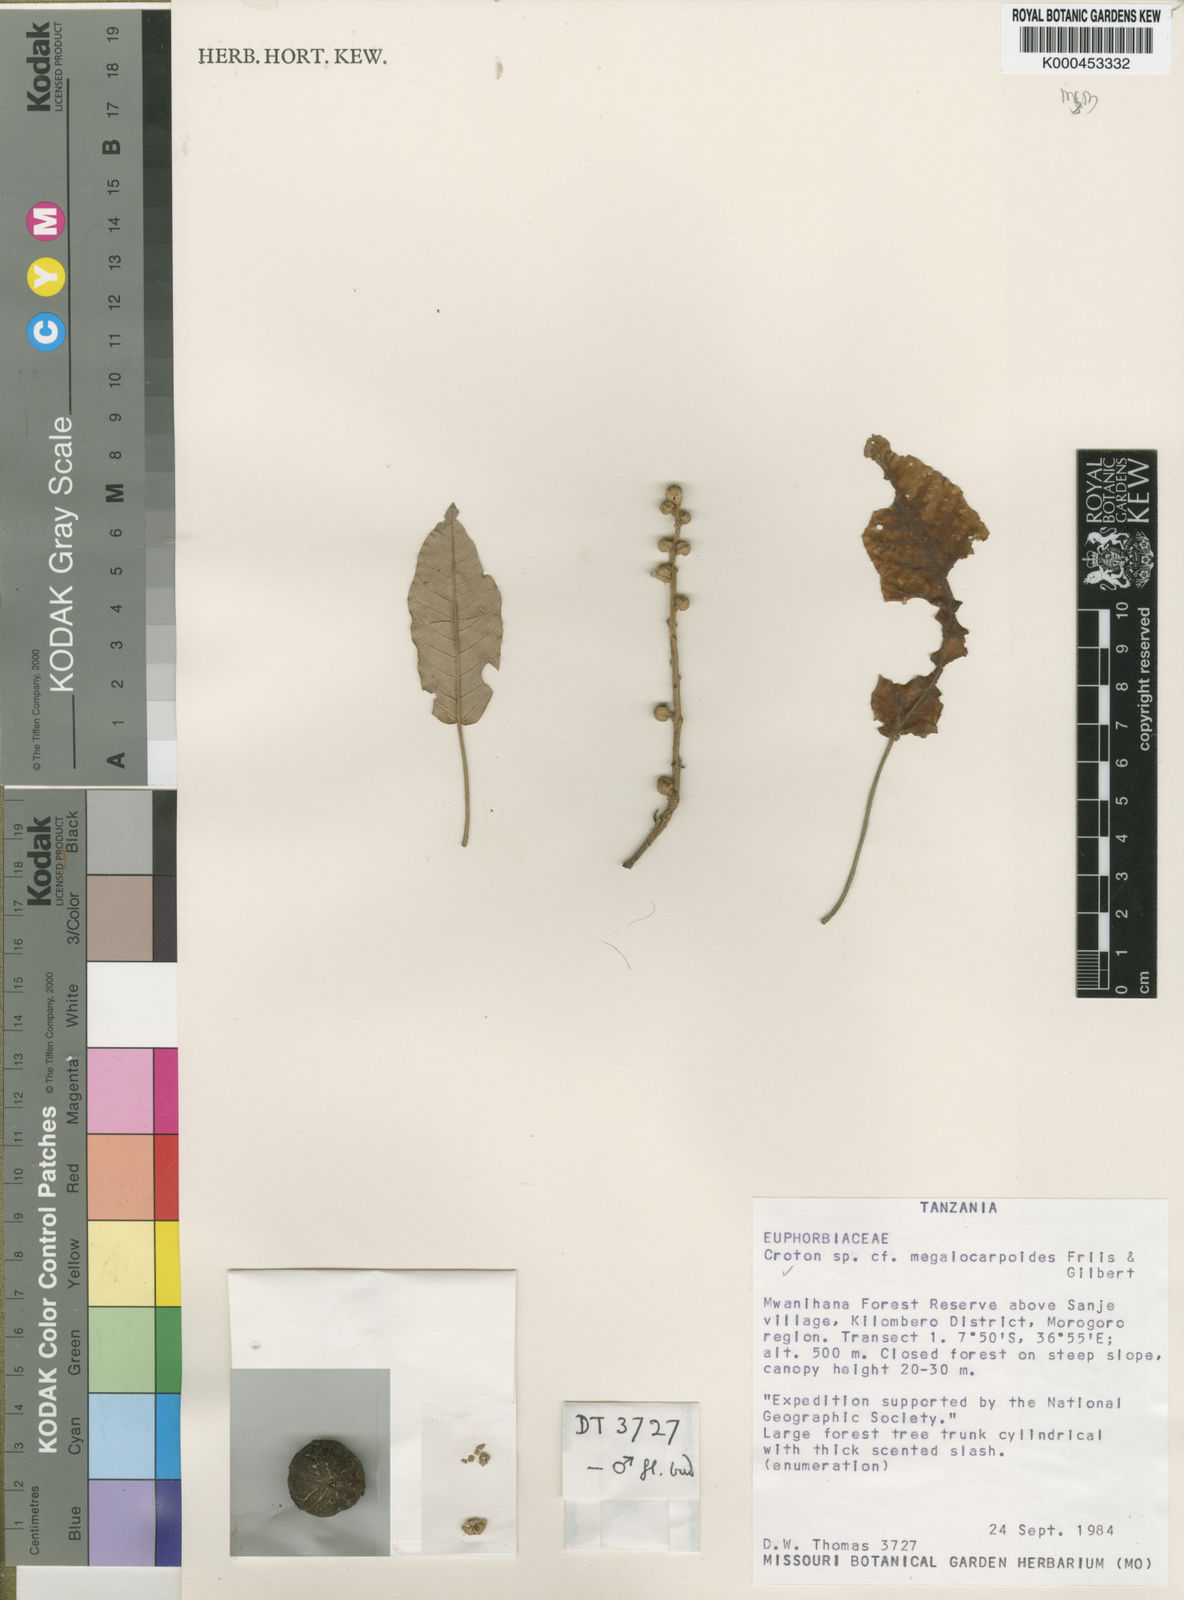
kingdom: Plantae
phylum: Tracheophyta
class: Magnoliopsida
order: Malpighiales
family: Euphorbiaceae
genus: Croton
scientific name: Croton megalocarpoides
